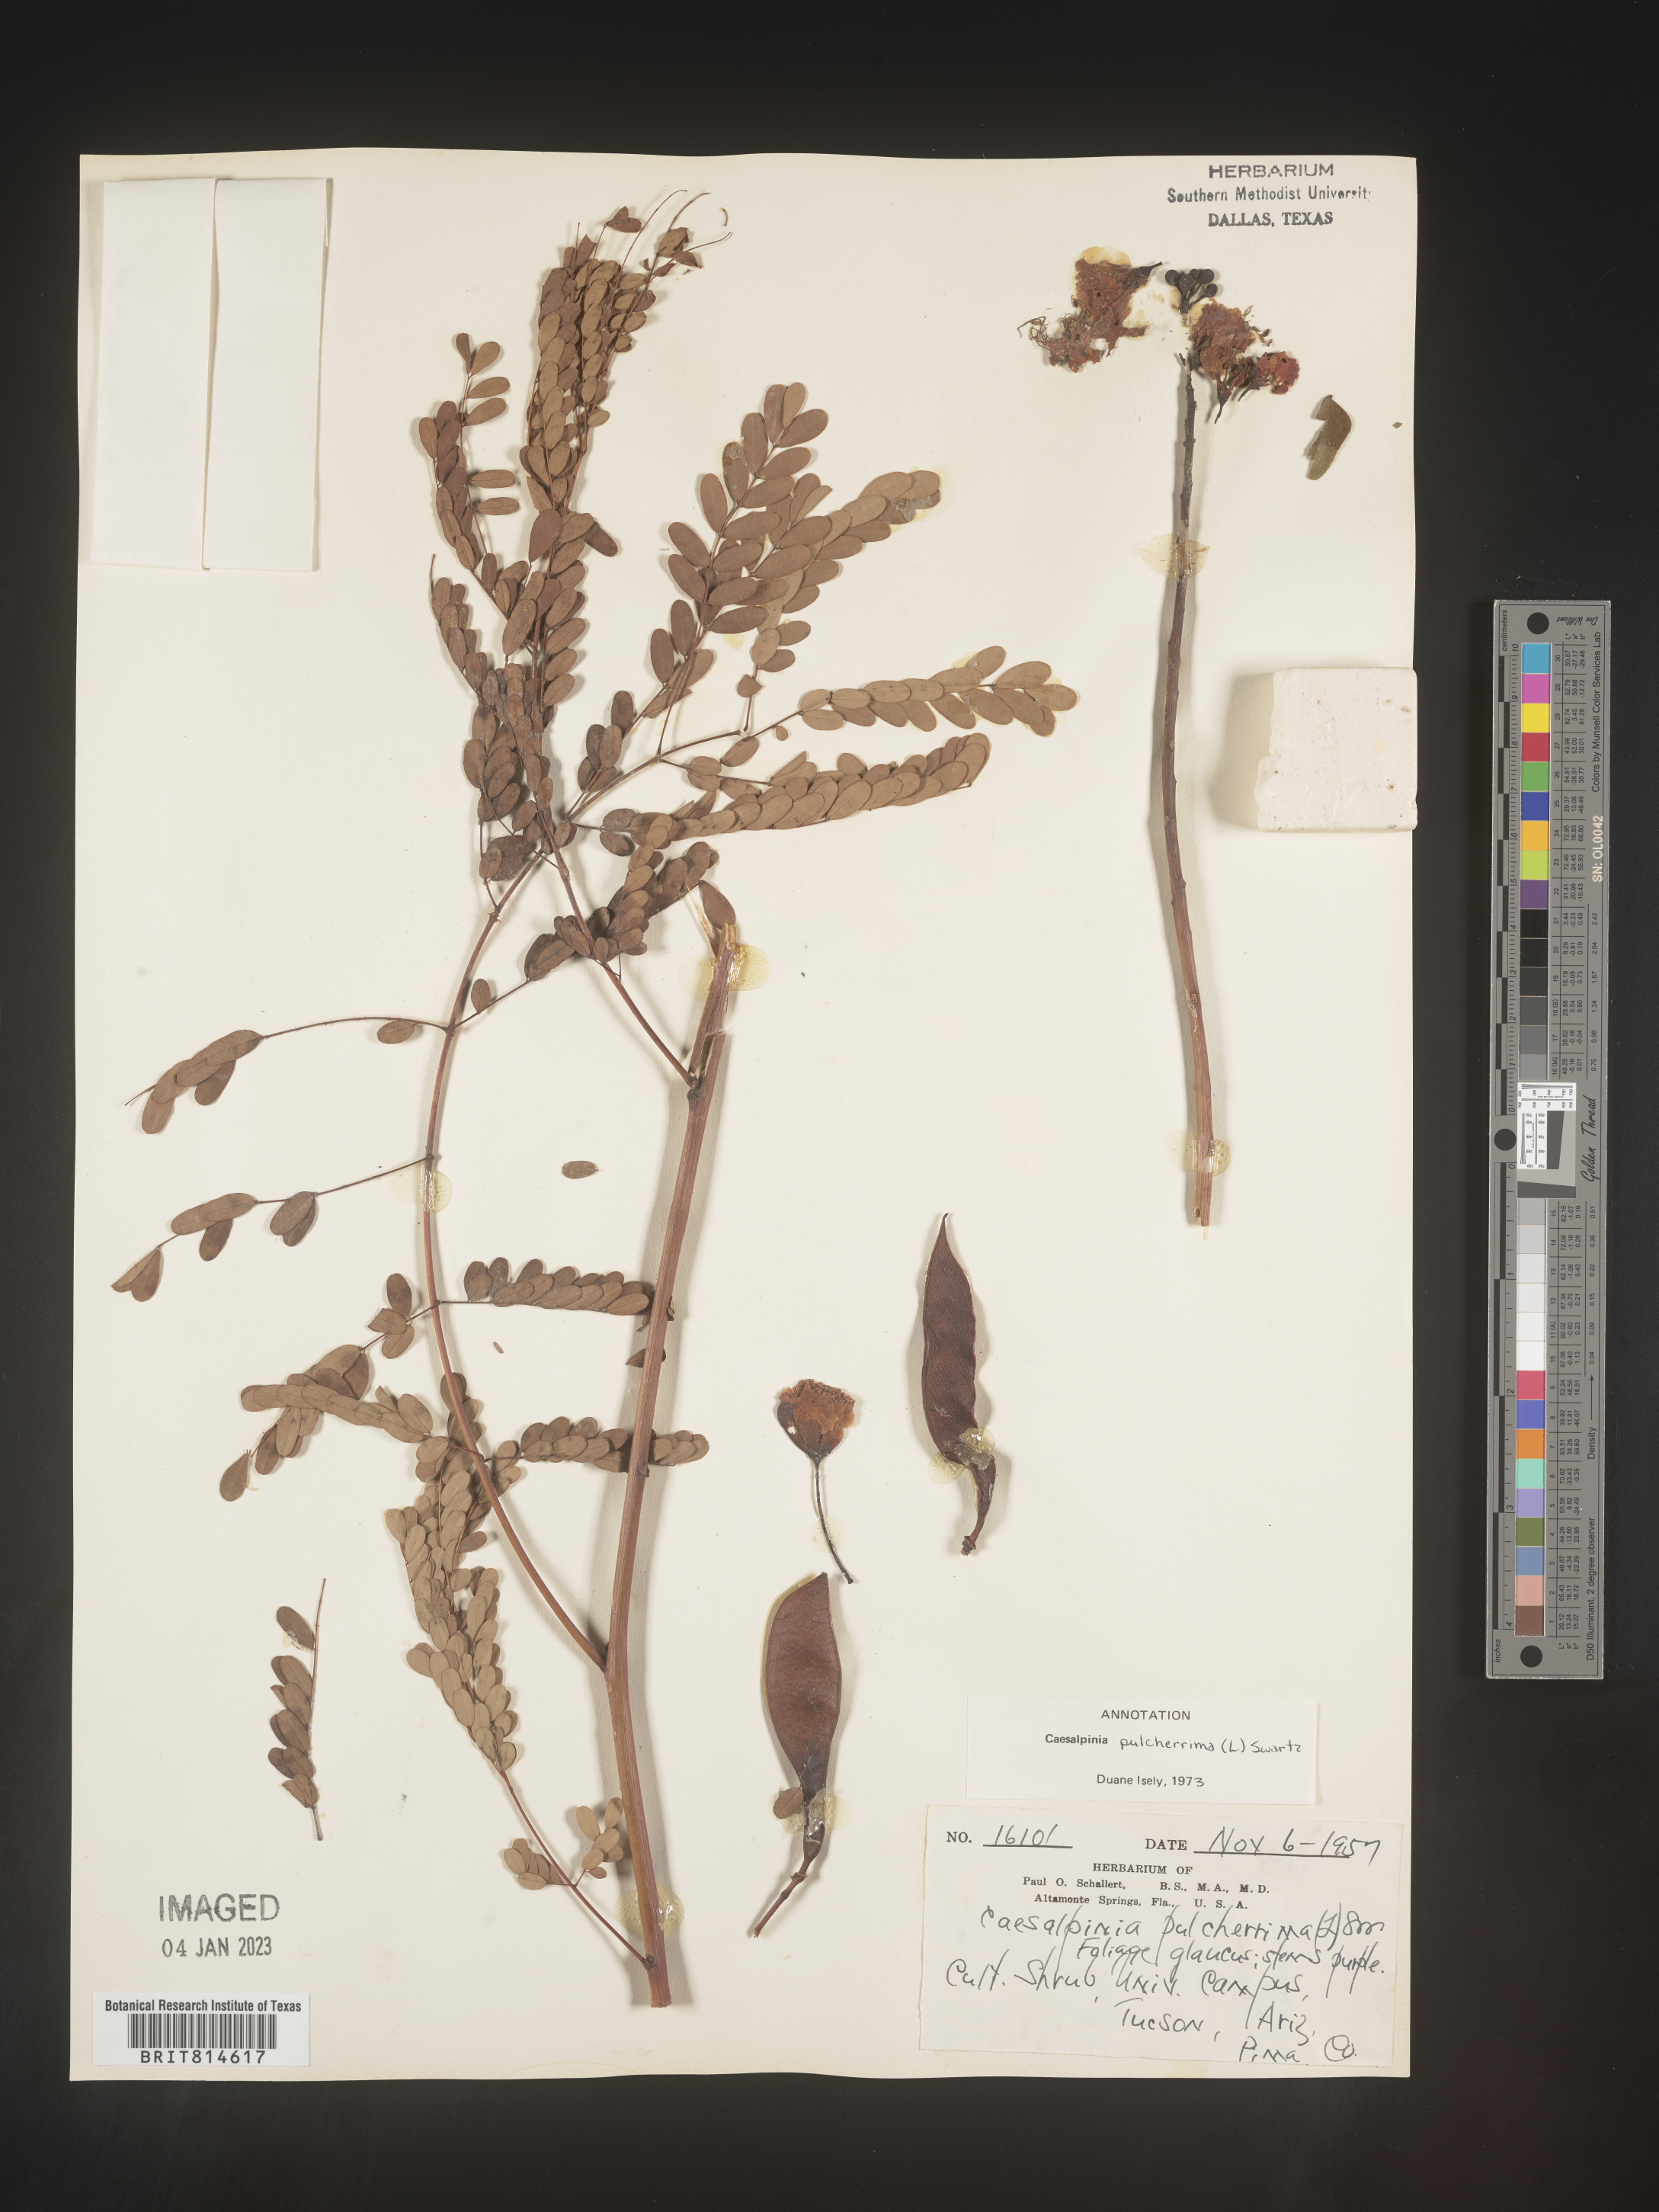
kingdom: Plantae
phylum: Tracheophyta
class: Magnoliopsida
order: Fabales
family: Fabaceae
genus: Caesalpinia
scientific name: Caesalpinia
